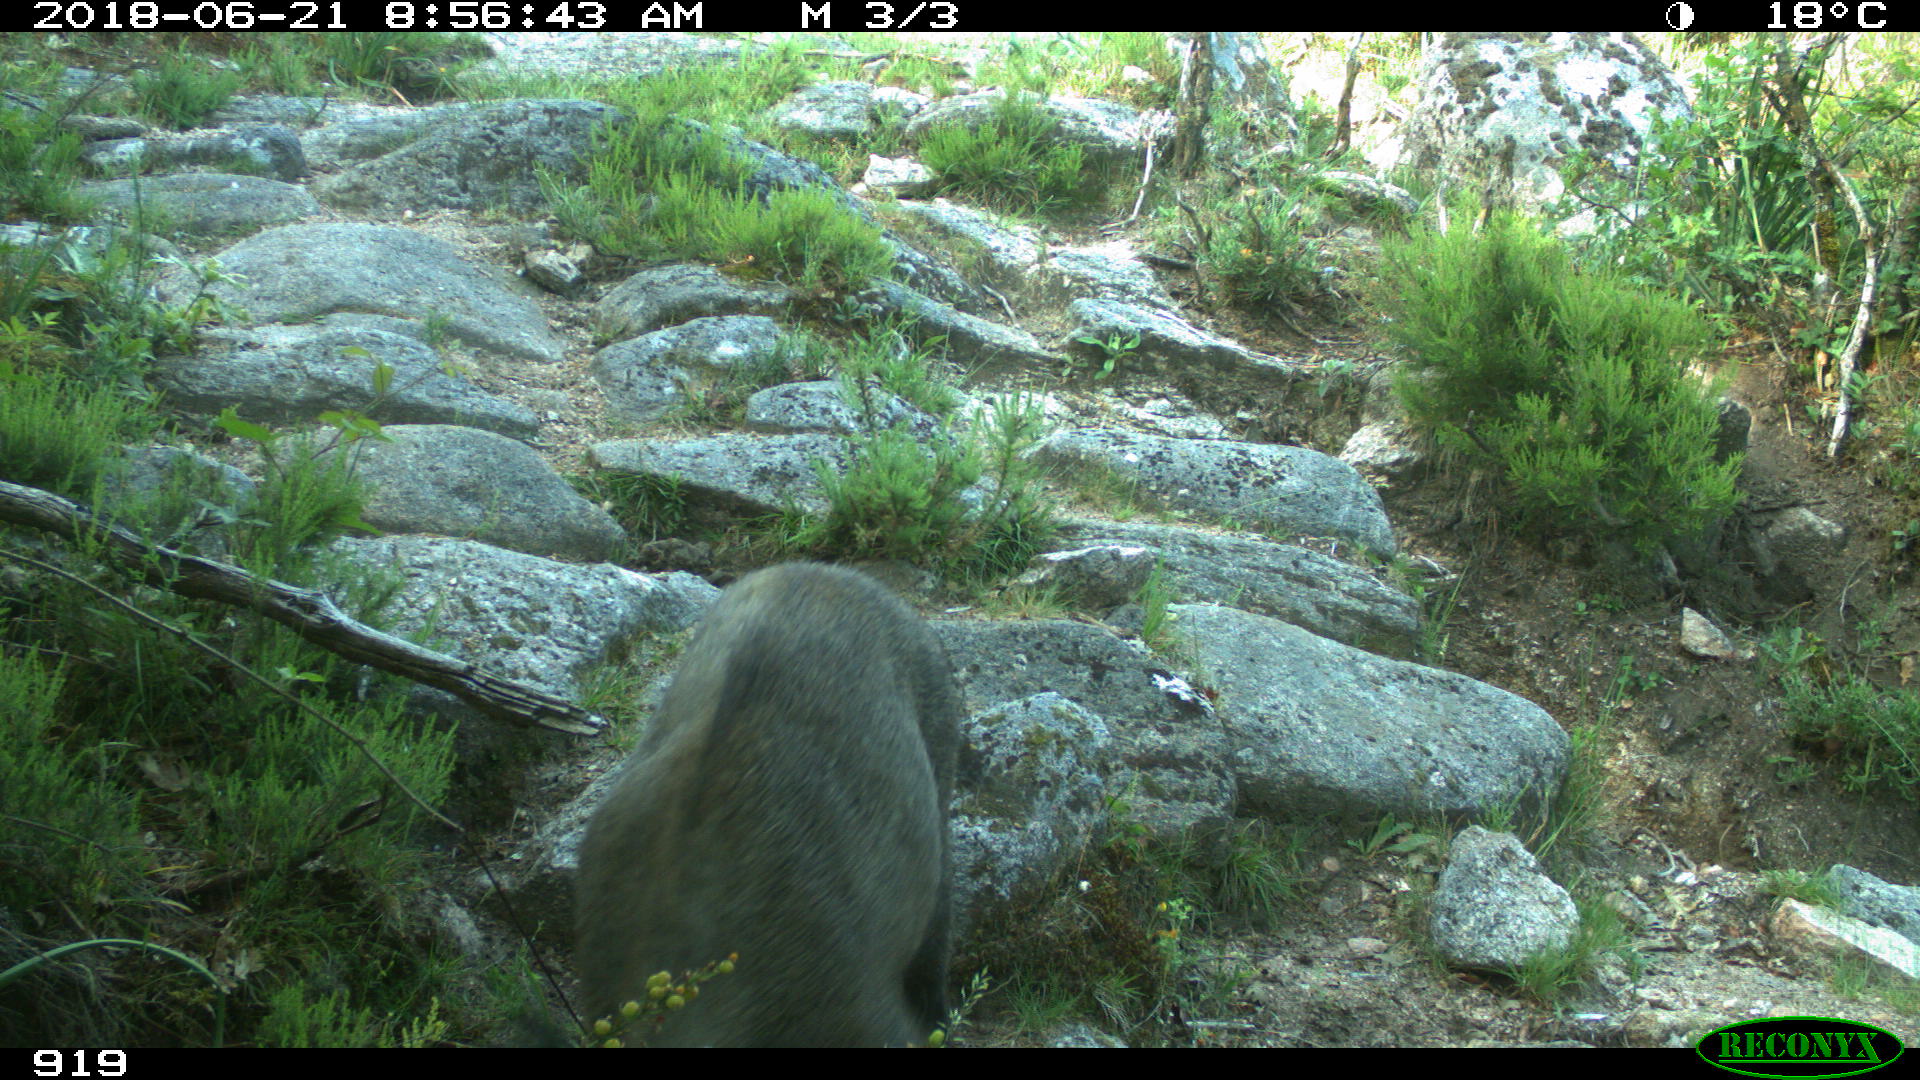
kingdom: Animalia
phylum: Chordata
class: Mammalia
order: Artiodactyla
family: Suidae
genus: Sus
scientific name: Sus scrofa
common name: Wild boar
